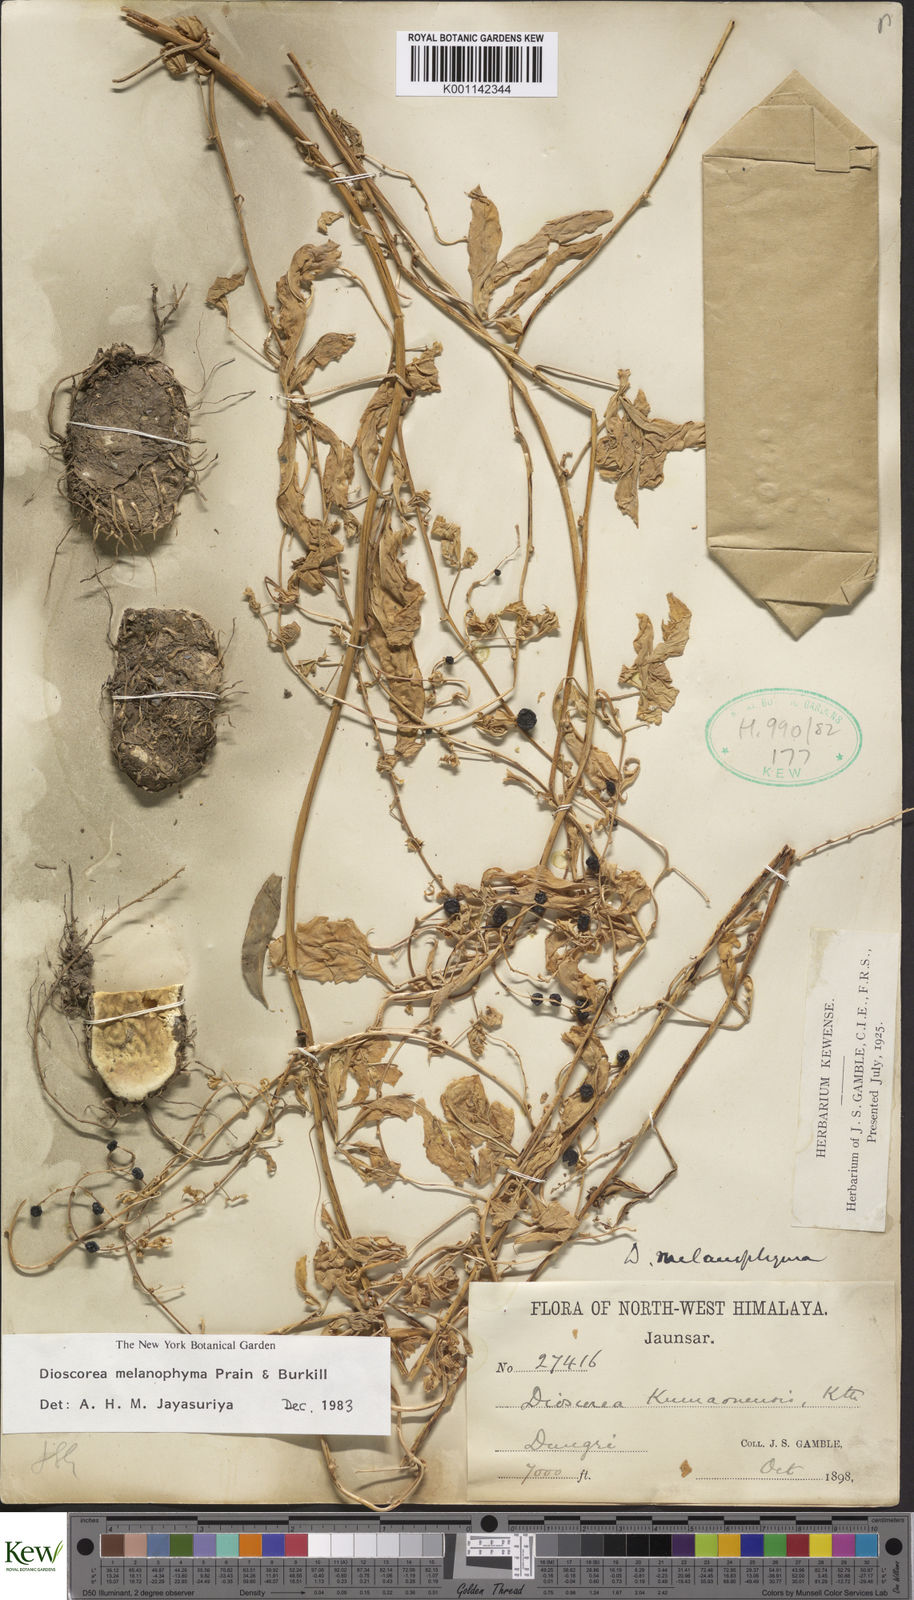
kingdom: Plantae
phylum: Tracheophyta
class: Liliopsida
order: Dioscoreales
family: Dioscoreaceae
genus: Dioscorea
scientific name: Dioscorea melanophyma
